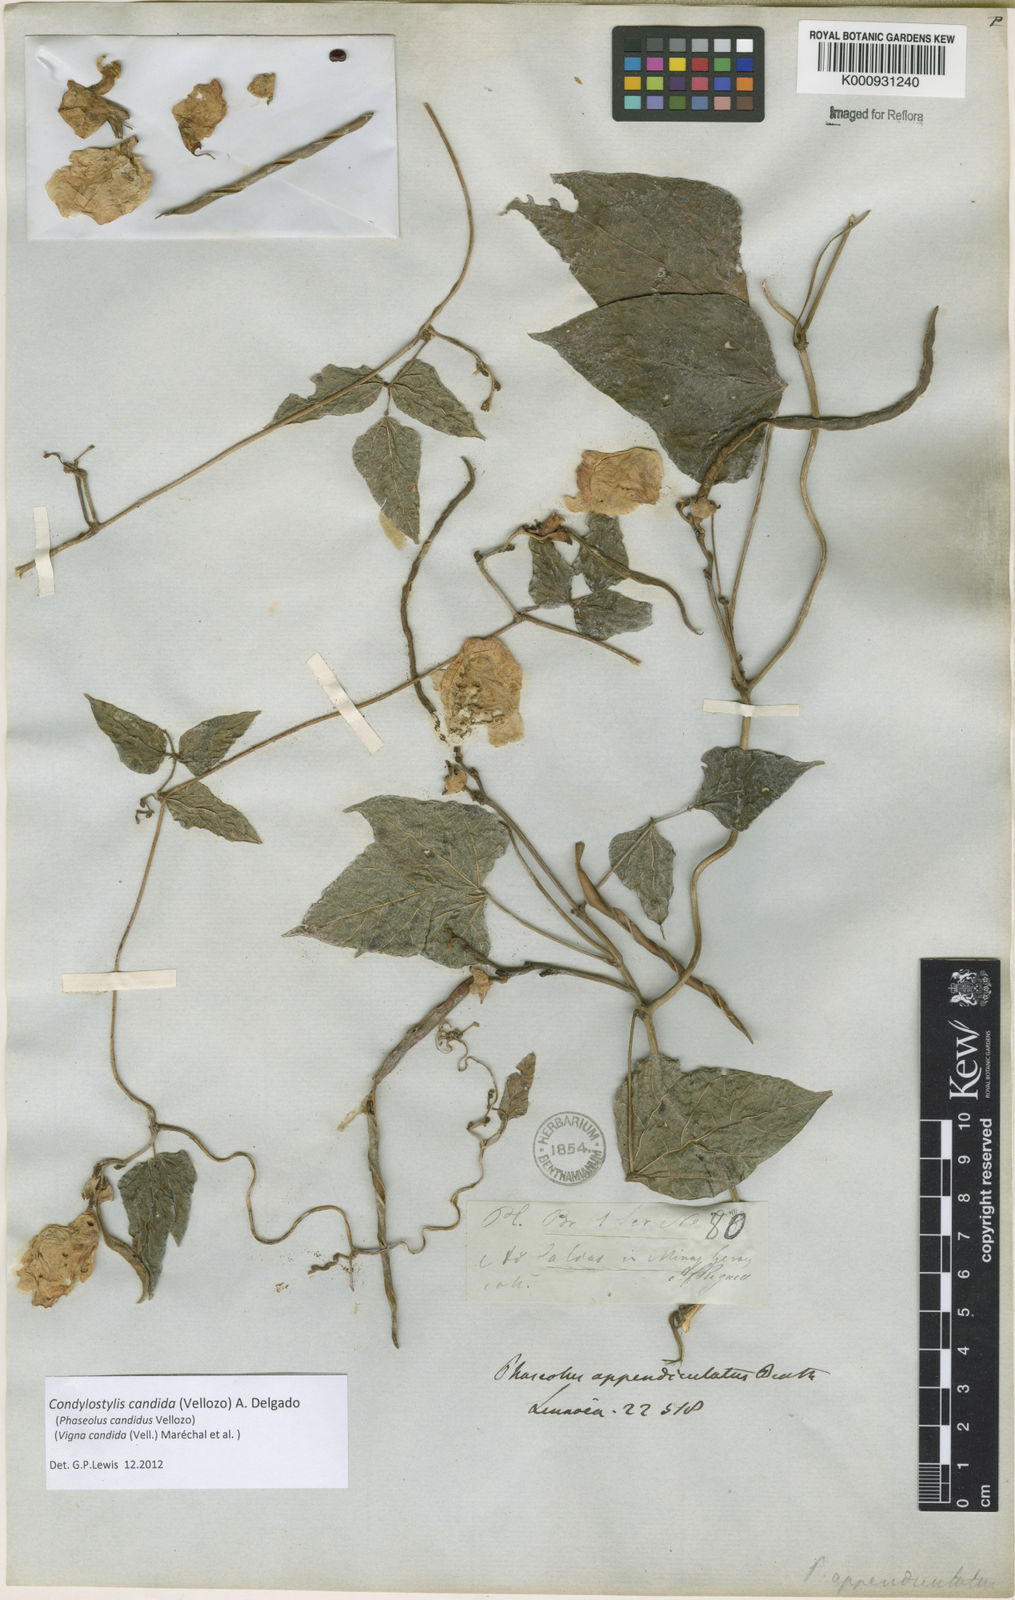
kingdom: Plantae
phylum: Tracheophyta
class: Magnoliopsida
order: Fabales
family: Fabaceae
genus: Condylostylis
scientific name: Condylostylis candida
